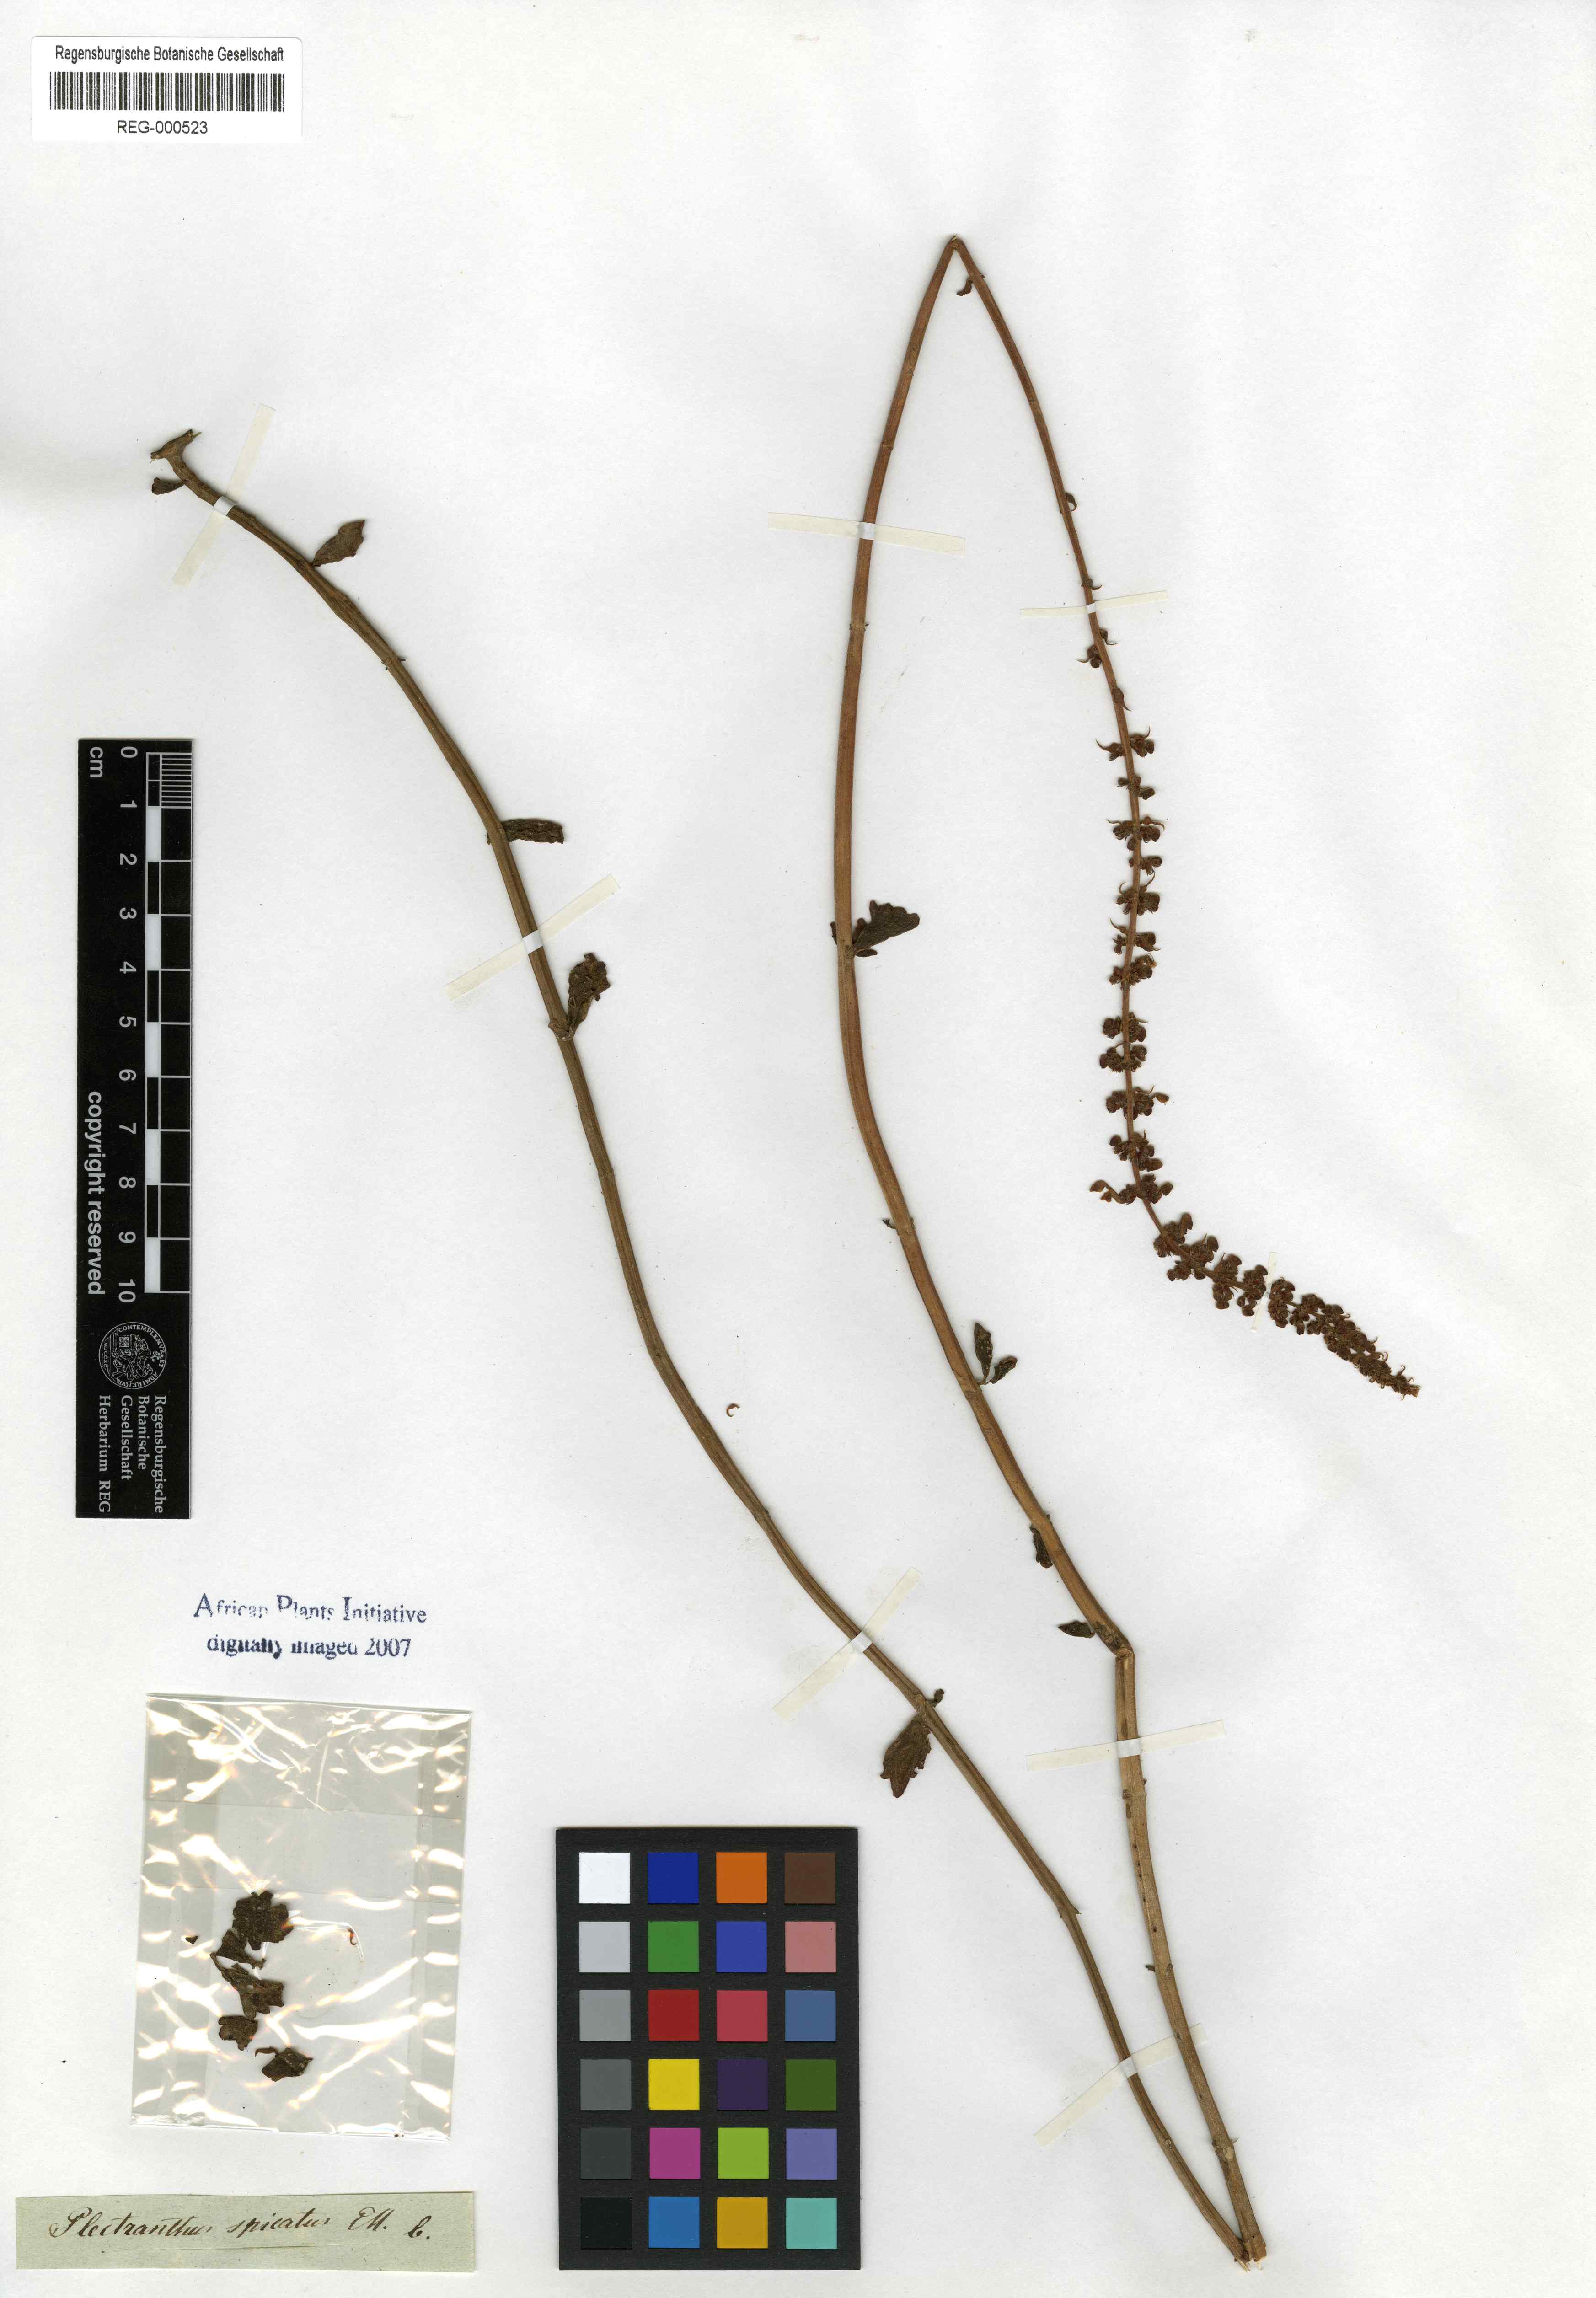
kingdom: Plantae
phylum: Tracheophyta
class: Magnoliopsida
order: Lamiales
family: Lamiaceae
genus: Coleus
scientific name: Coleus subspicatus
